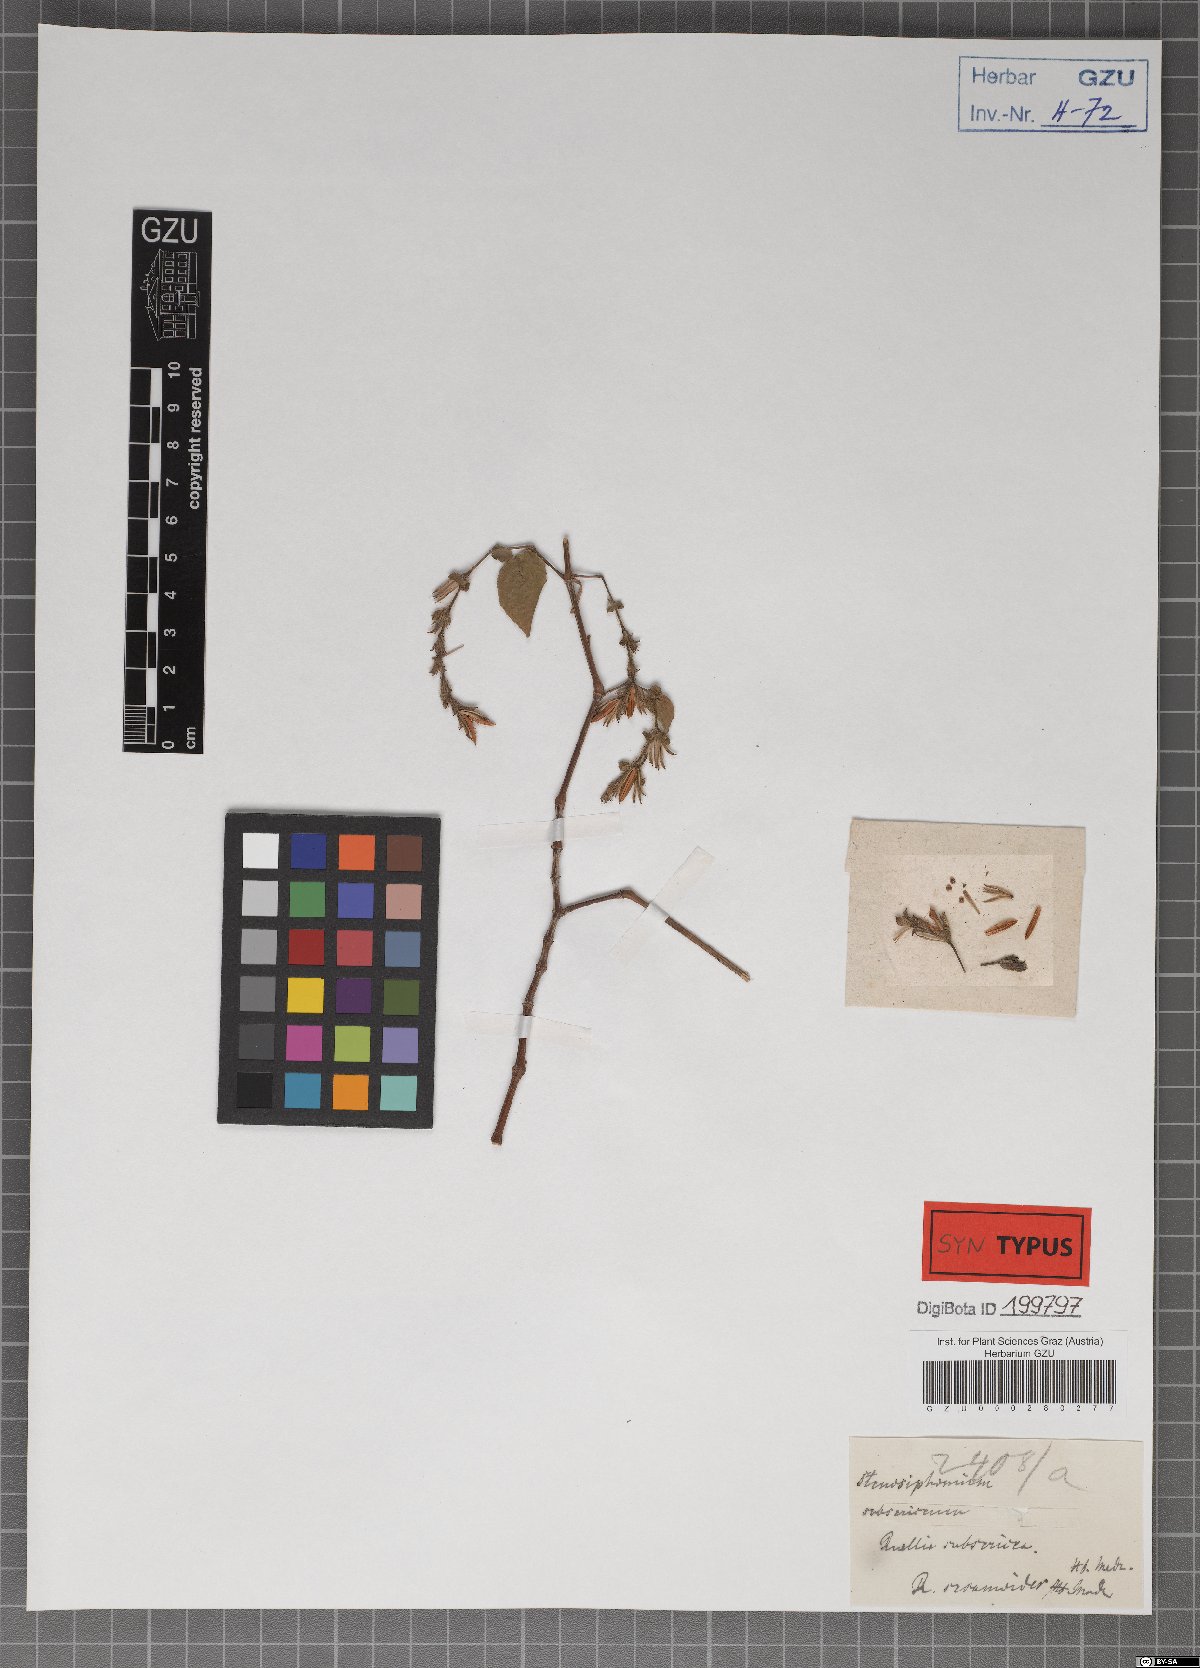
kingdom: Plantae
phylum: Tracheophyta
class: Magnoliopsida
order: Lamiales
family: Acanthaceae
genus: Strobilanthes
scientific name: Strobilanthes cordifolia
